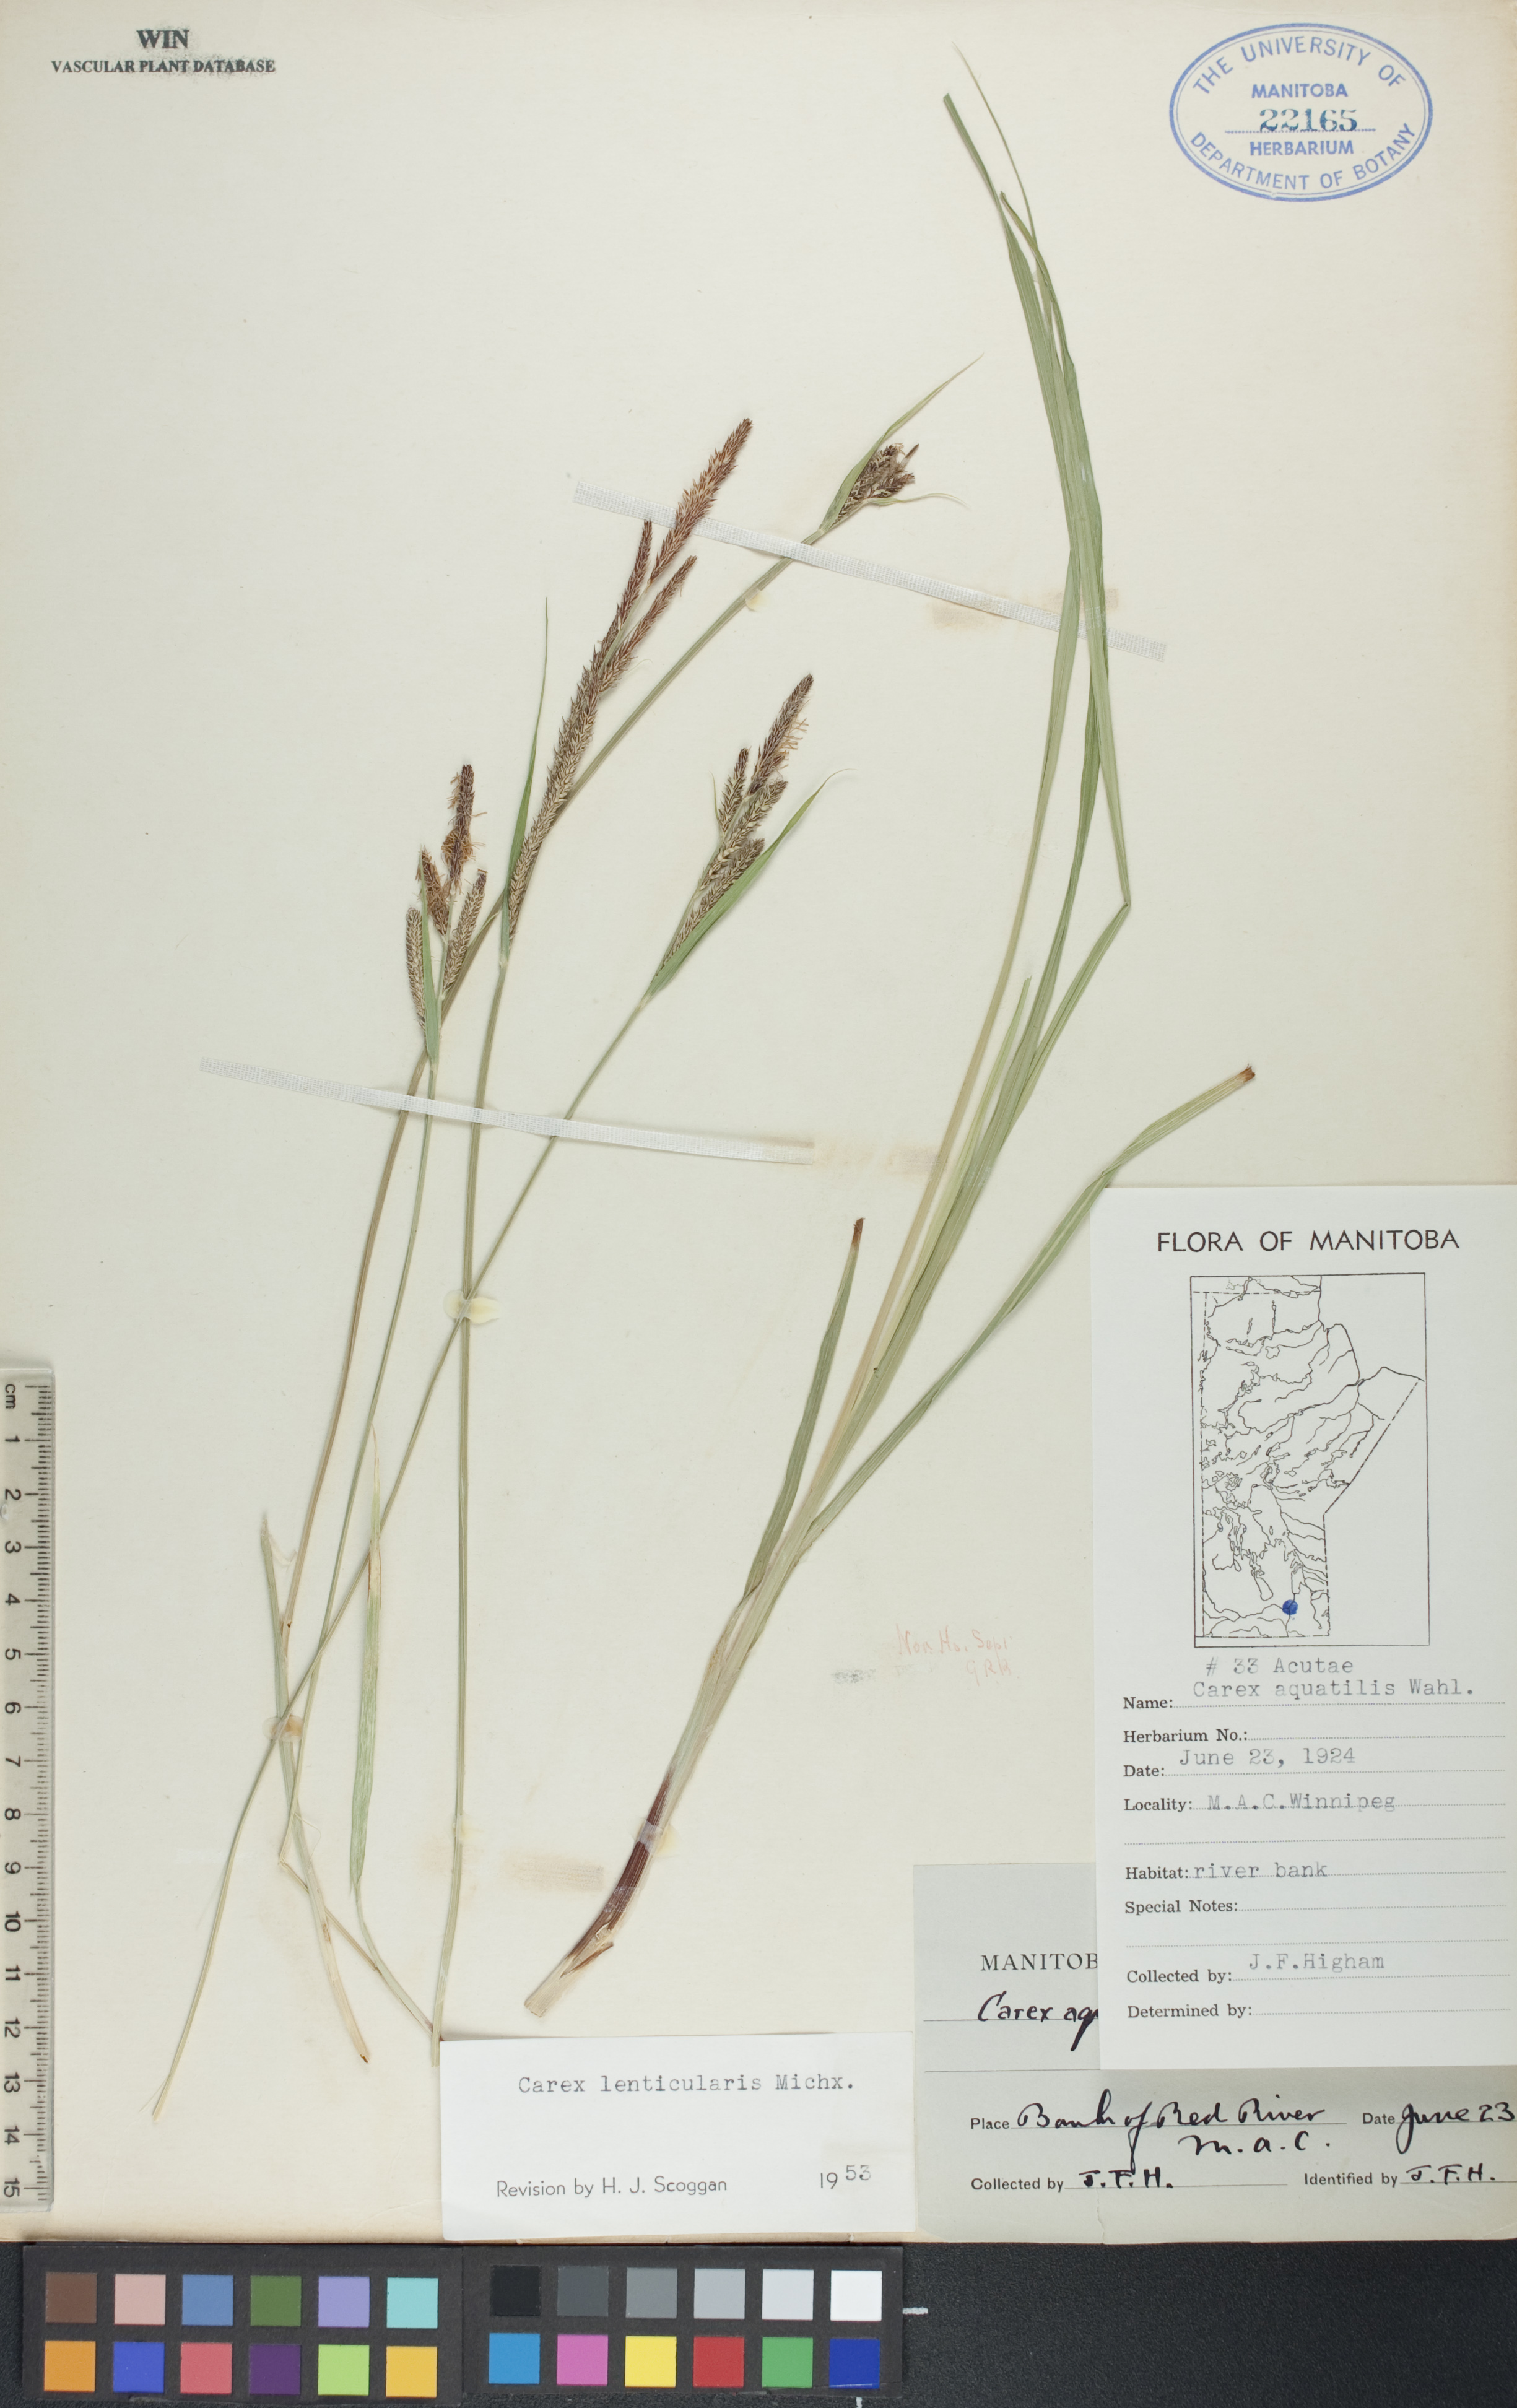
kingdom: Plantae
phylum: Tracheophyta
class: Liliopsida
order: Poales
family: Cyperaceae
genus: Carex
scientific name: Carex lenticularis
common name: Lakeshore sedge
